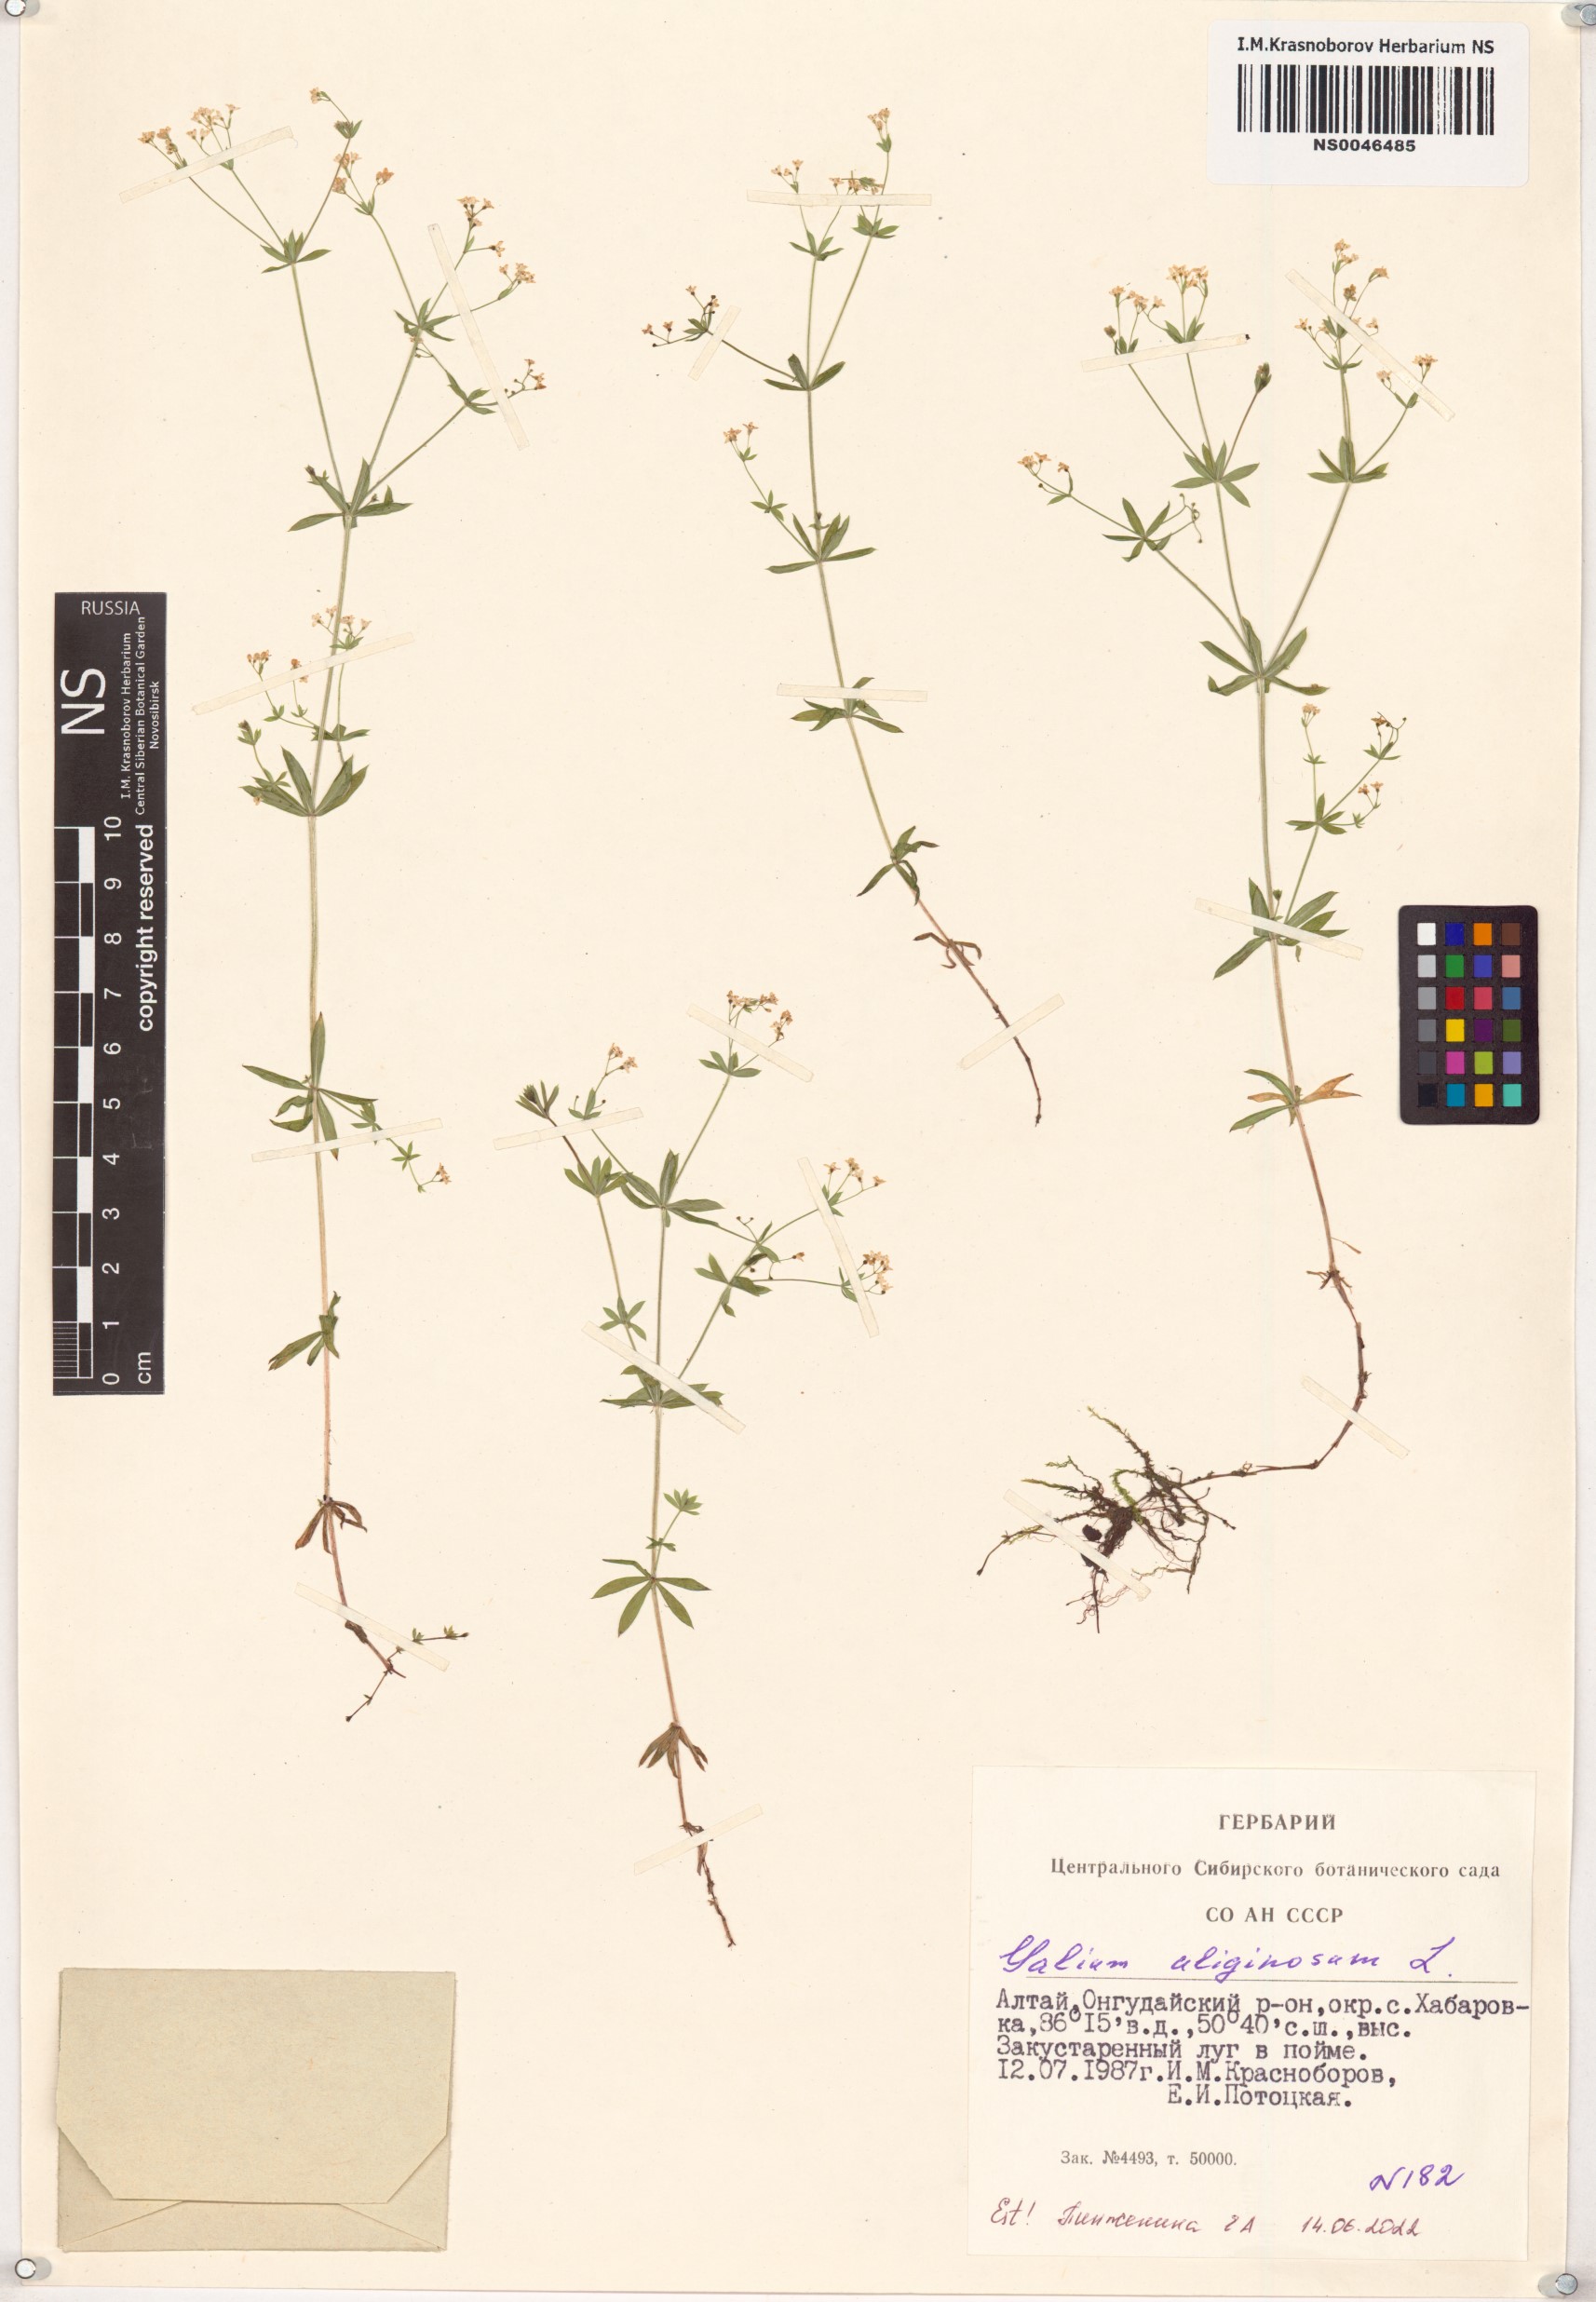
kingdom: Plantae
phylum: Tracheophyta
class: Magnoliopsida
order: Gentianales
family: Rubiaceae
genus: Galium
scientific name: Galium uliginosum
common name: Fen bedstraw
